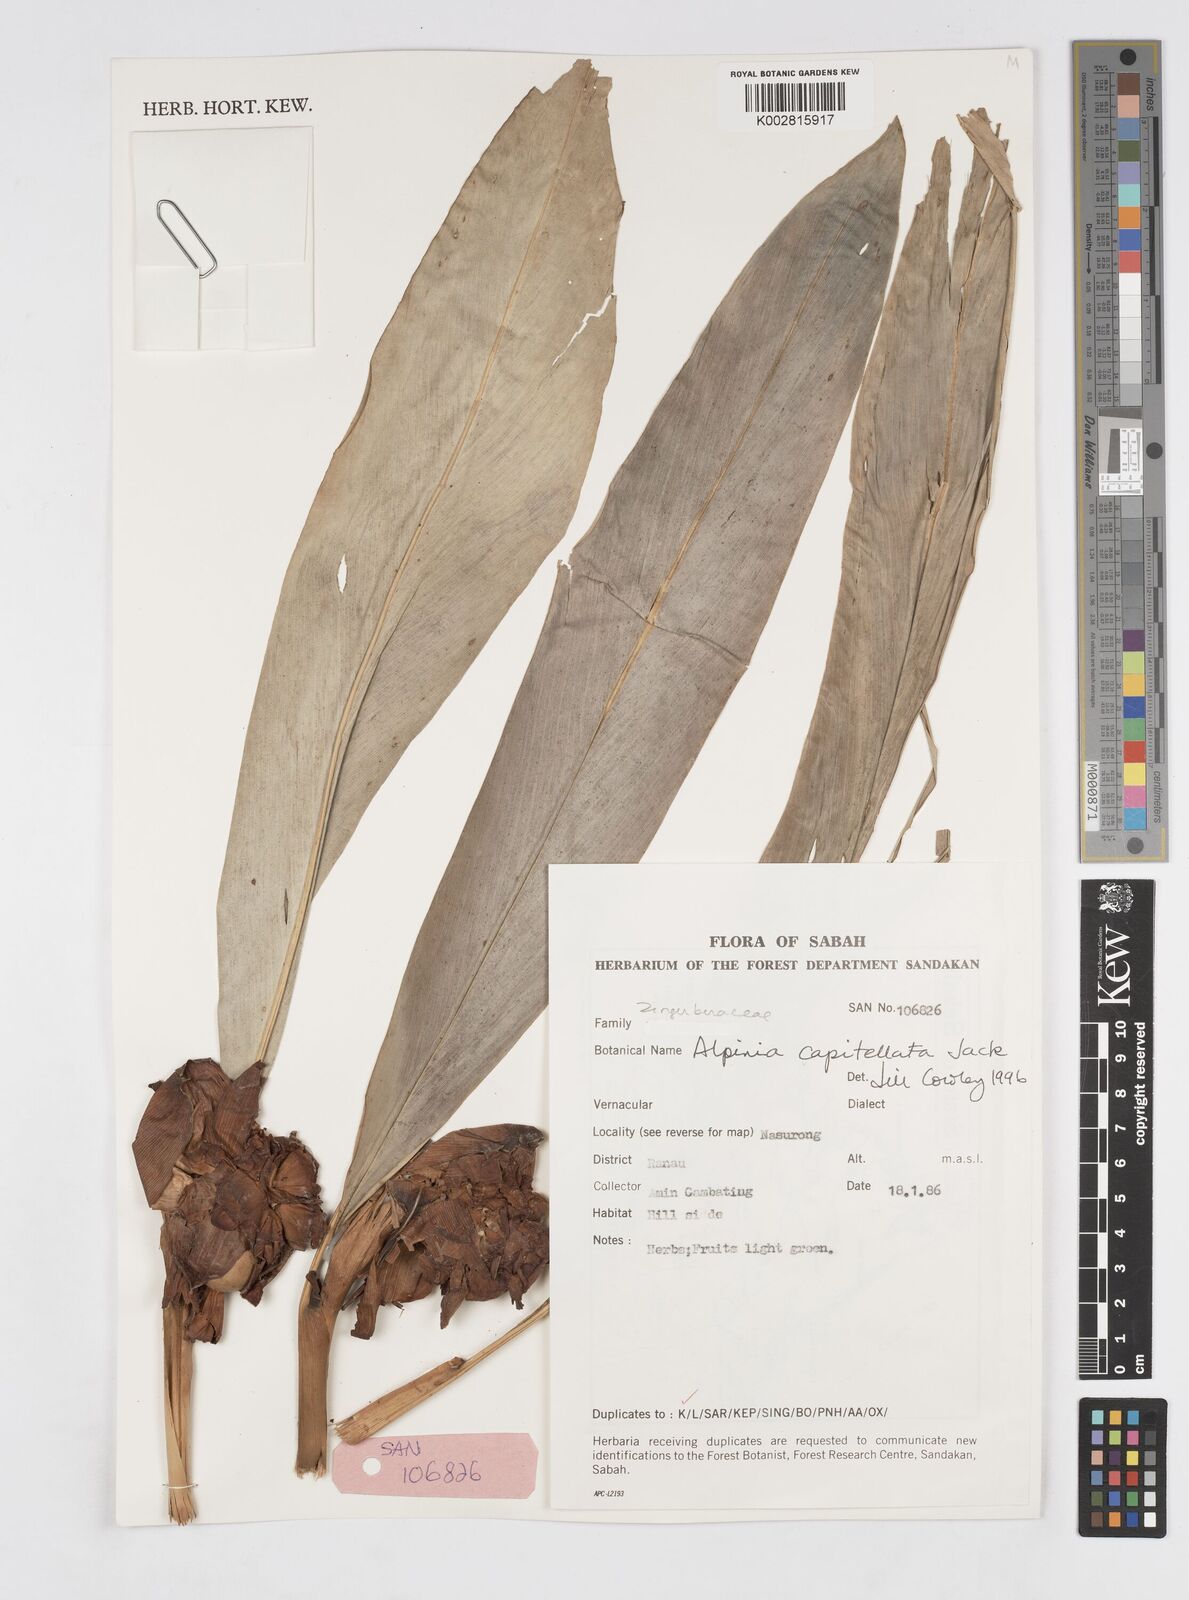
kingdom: Plantae
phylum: Tracheophyta
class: Liliopsida
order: Zingiberales
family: Zingiberaceae
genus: Alpinia
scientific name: Alpinia capitellata
